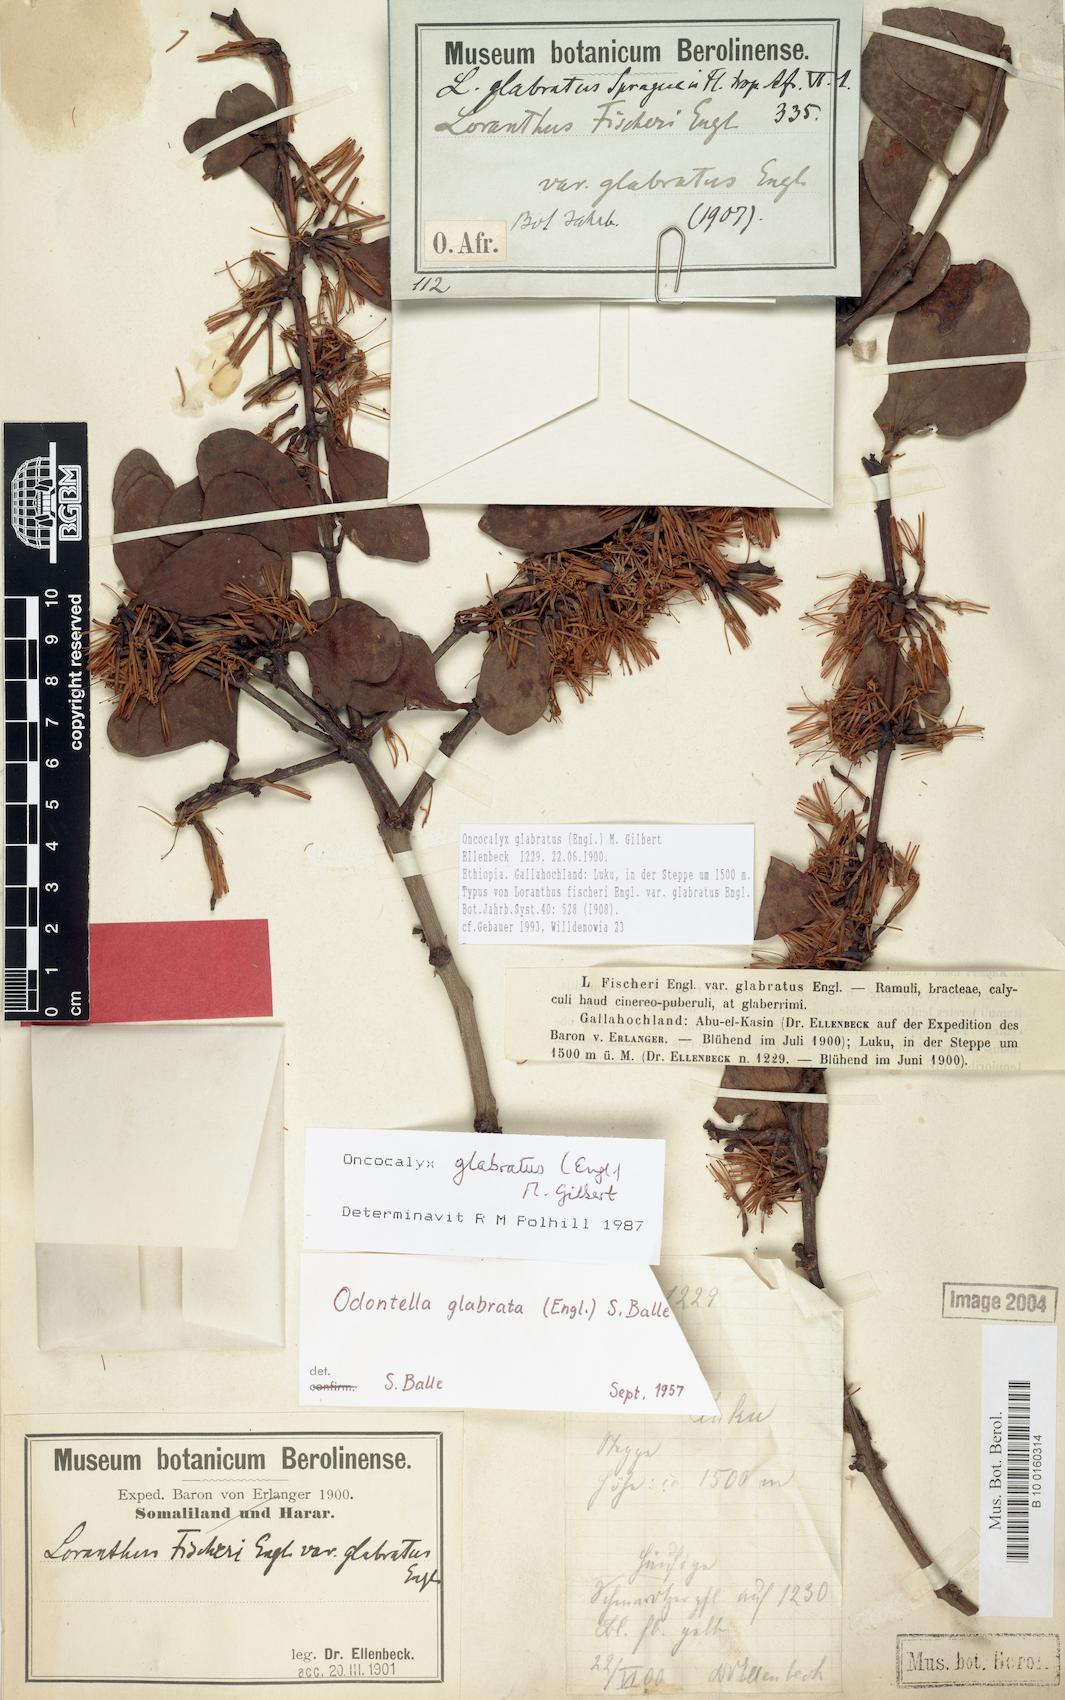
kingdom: Plantae
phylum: Tracheophyta
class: Magnoliopsida
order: Santalales
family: Loranthaceae
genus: Oncocalyx
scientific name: Oncocalyx glabratus
